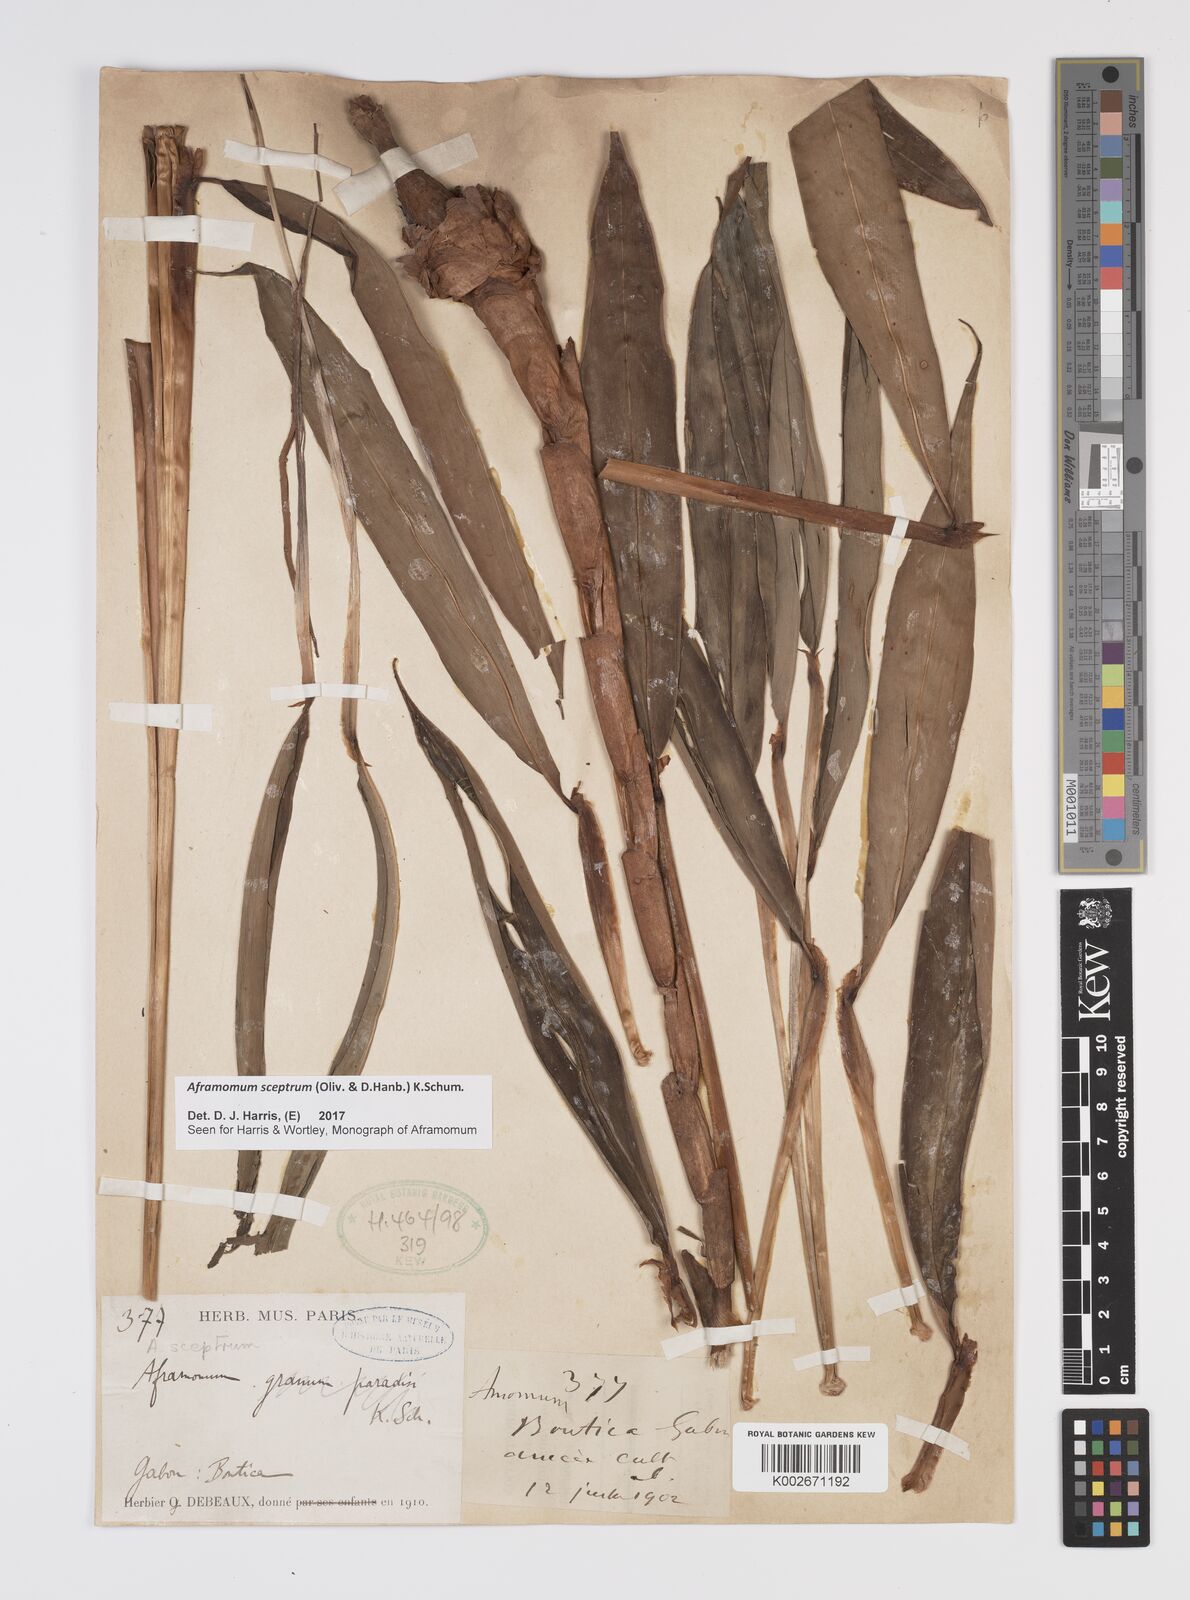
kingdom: Plantae
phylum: Tracheophyta
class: Liliopsida
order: Zingiberales
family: Zingiberaceae
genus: Aframomum
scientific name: Aframomum cereum
